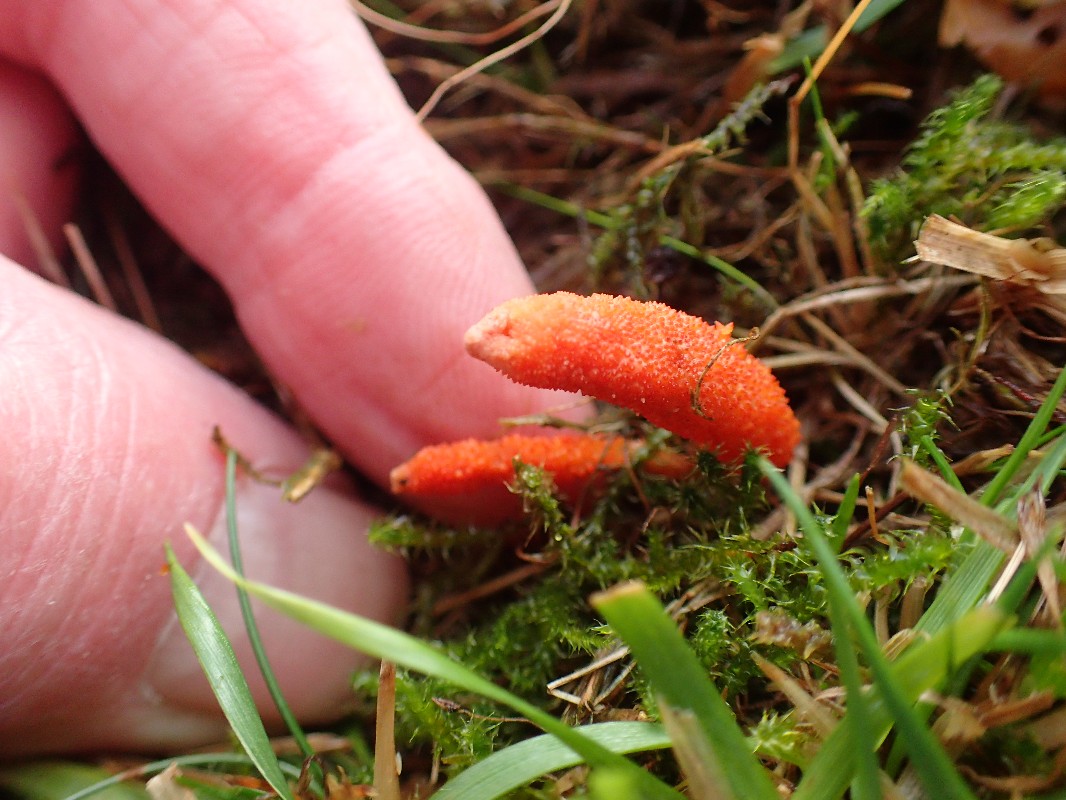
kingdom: Fungi
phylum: Ascomycota
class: Sordariomycetes
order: Hypocreales
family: Cordycipitaceae
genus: Cordyceps
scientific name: Cordyceps militaris
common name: puppe-snyltekølle
